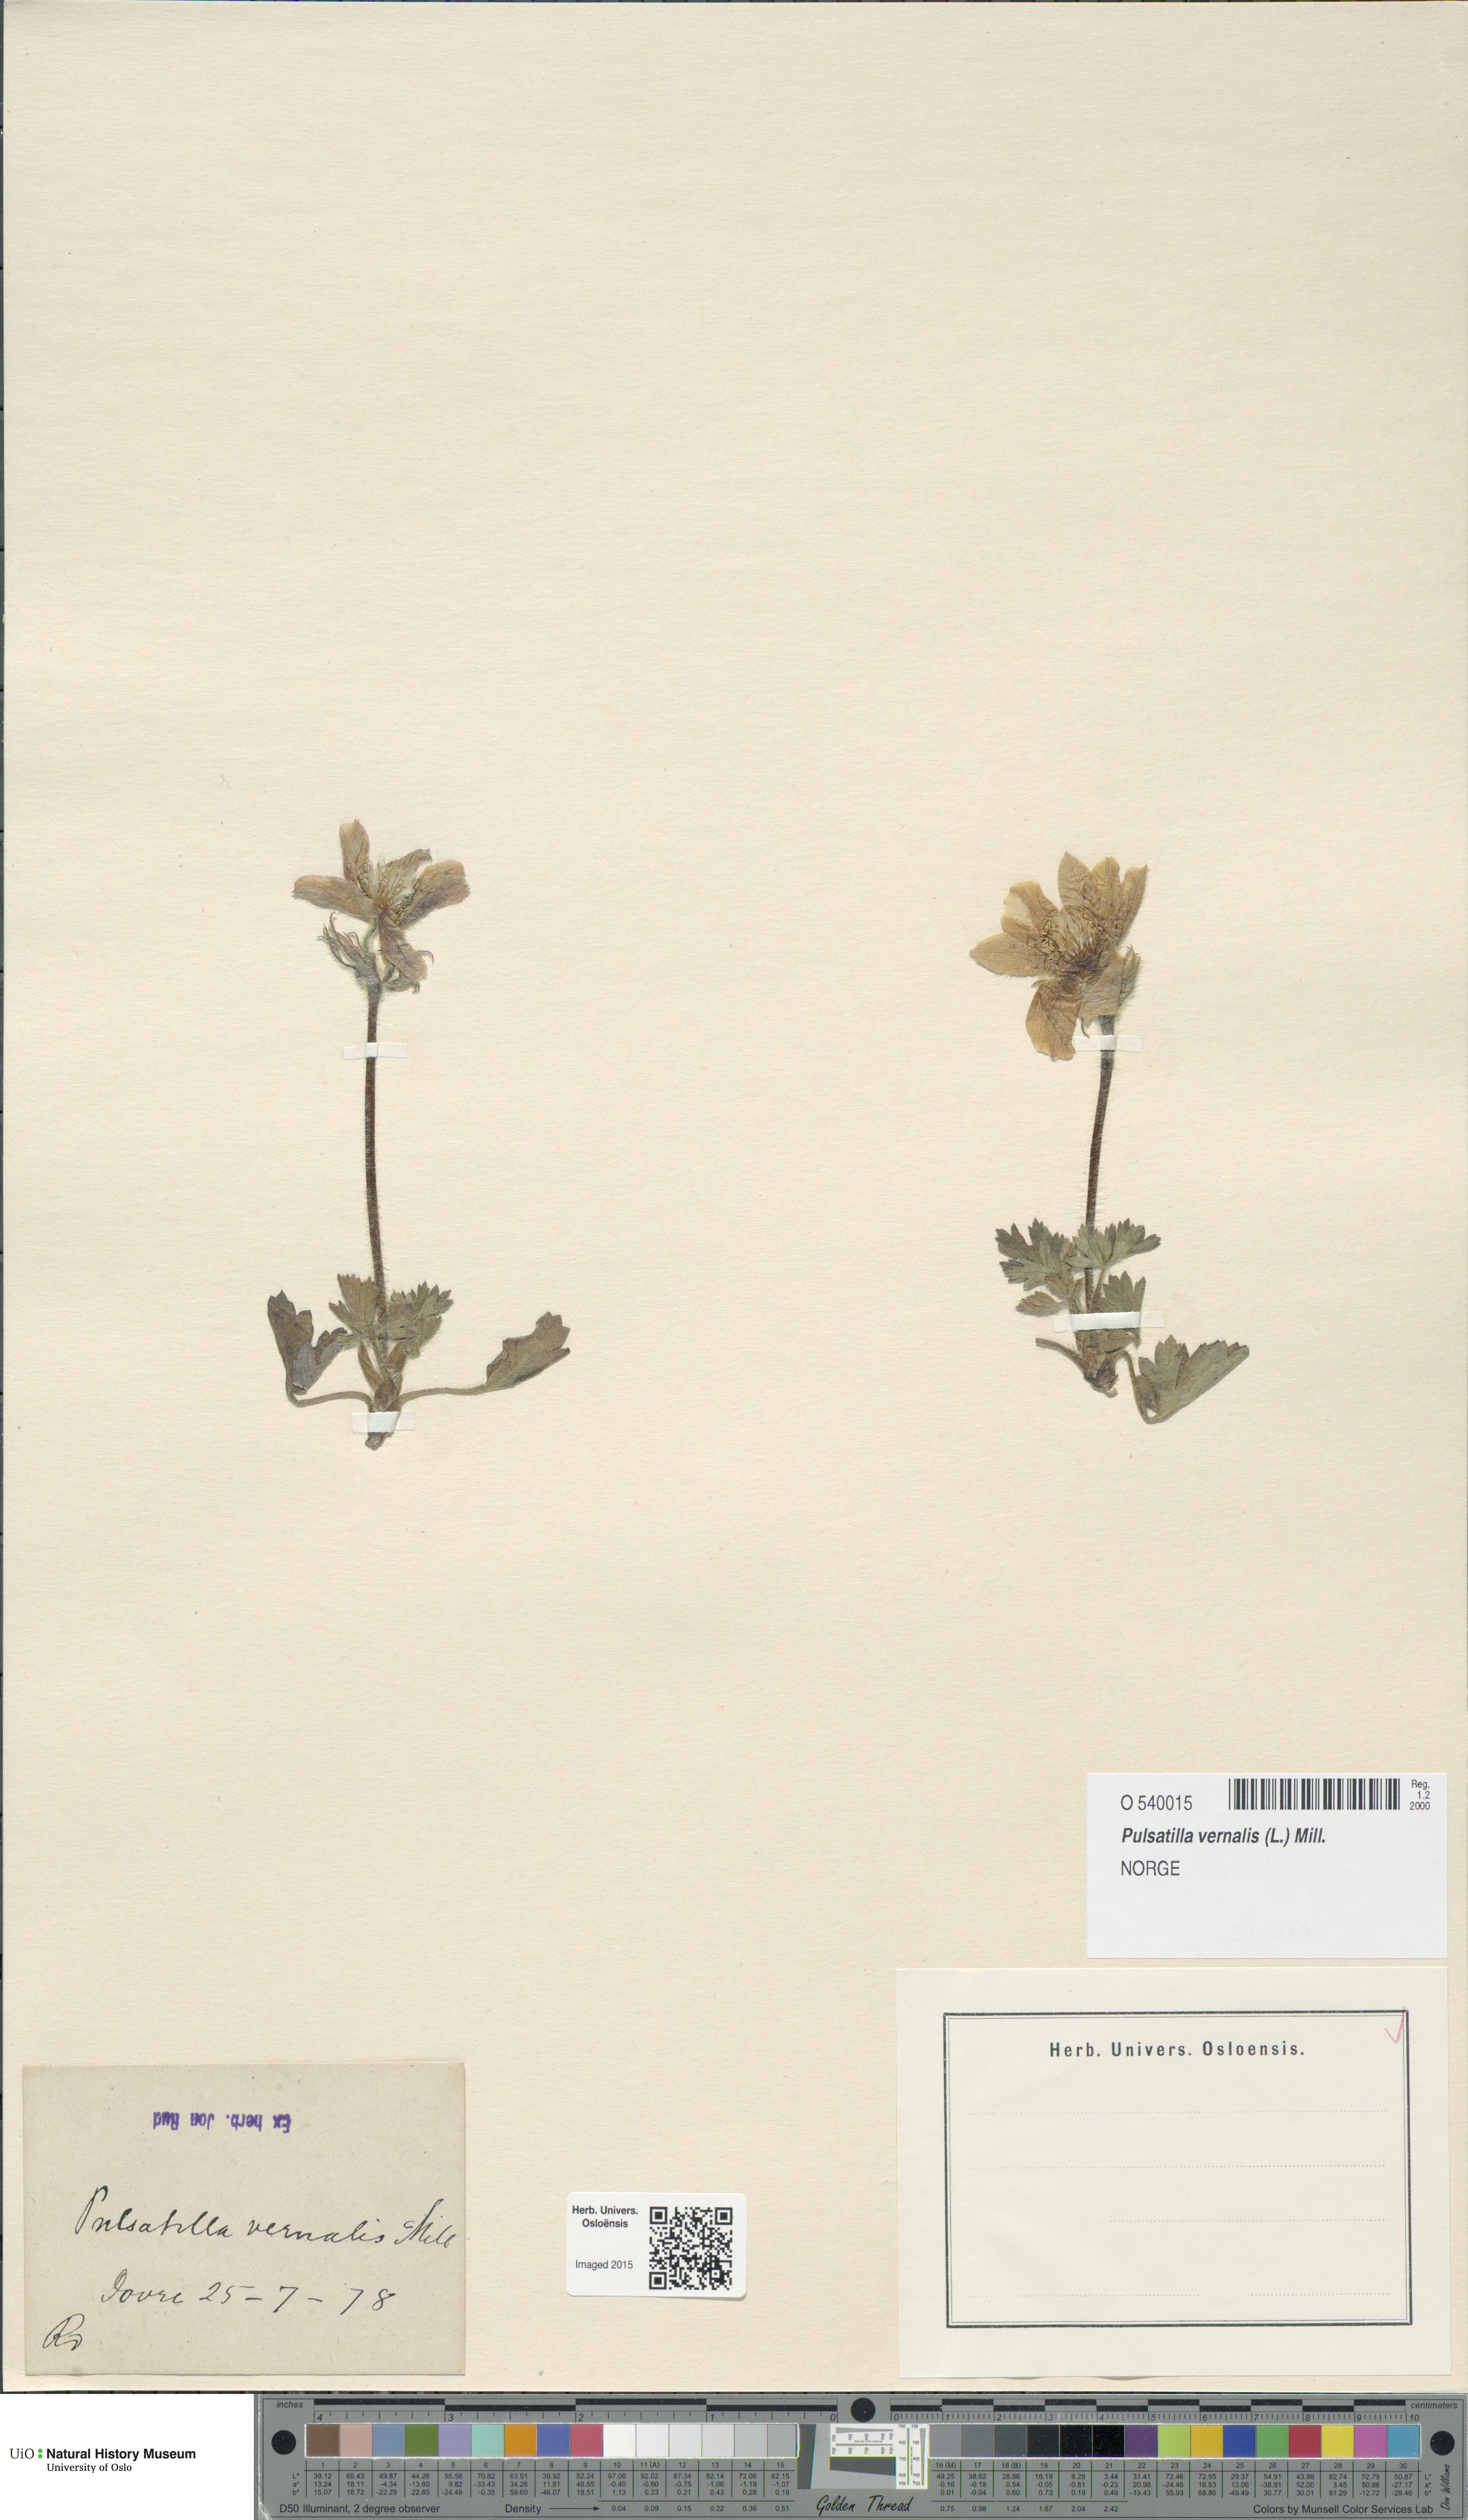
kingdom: Plantae
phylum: Tracheophyta
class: Magnoliopsida
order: Ranunculales
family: Ranunculaceae
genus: Pulsatilla
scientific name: Pulsatilla vernalis
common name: Spring pasque flower
